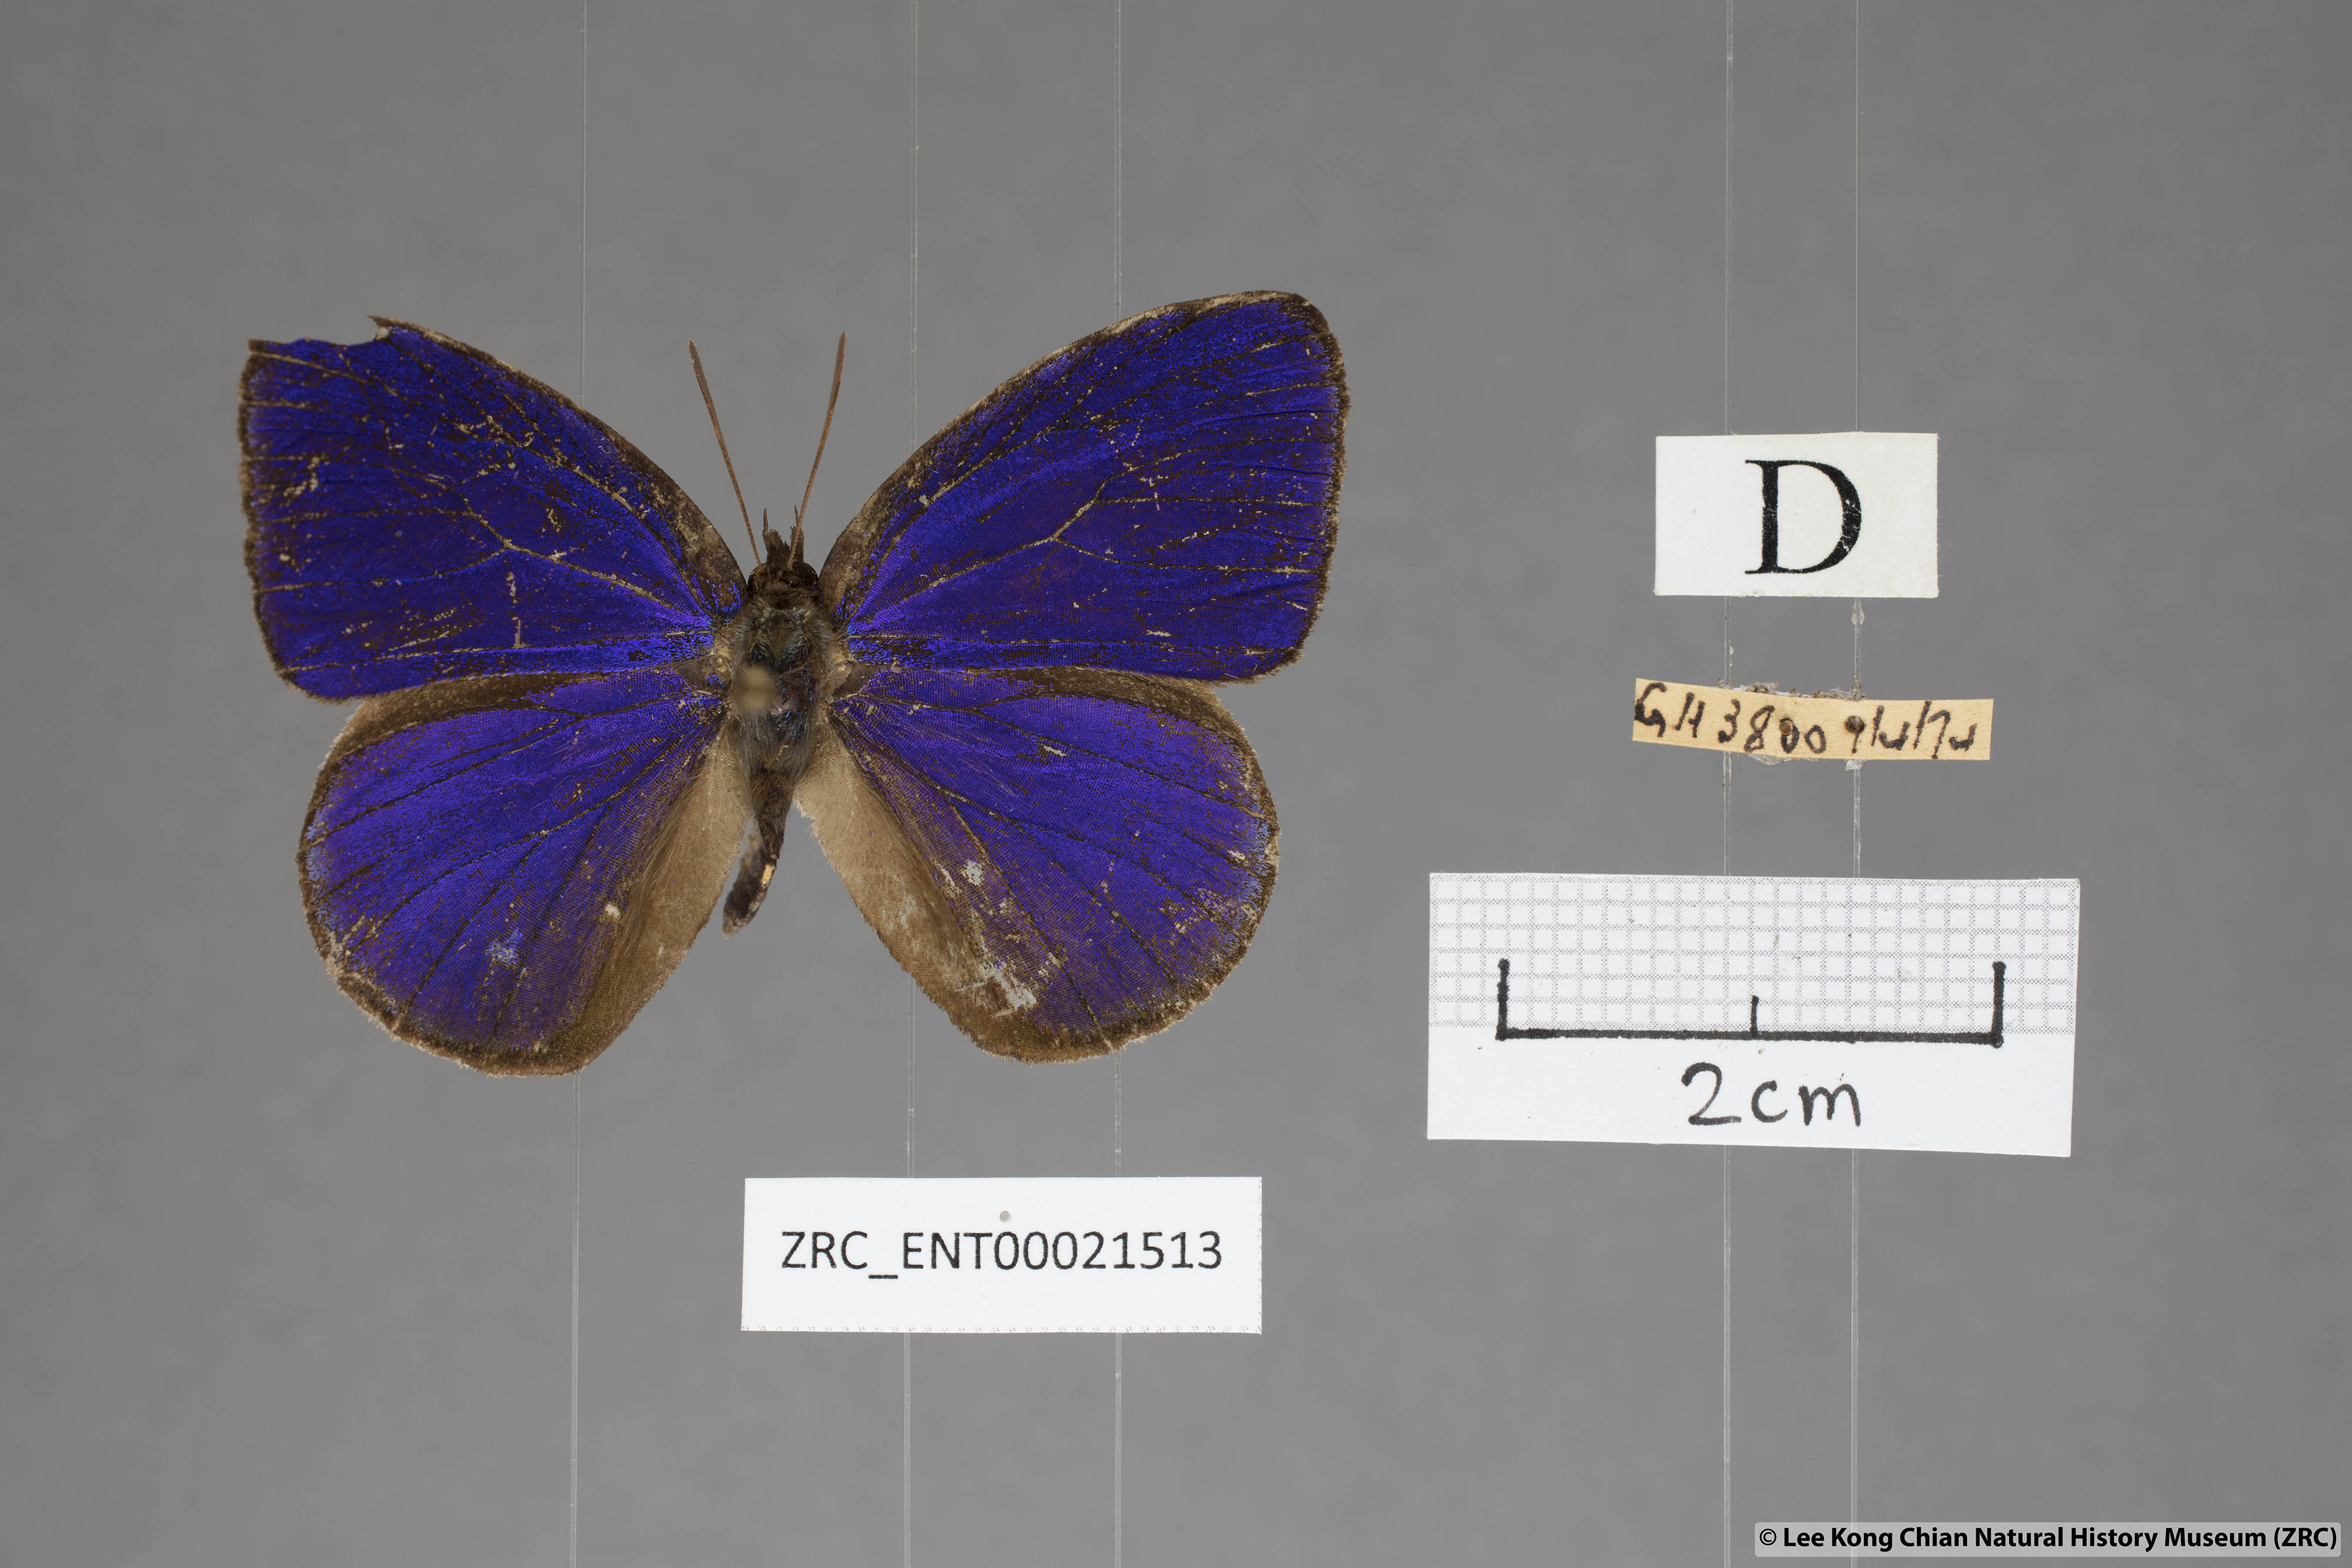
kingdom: Animalia
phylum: Arthropoda
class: Insecta
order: Lepidoptera
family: Lycaenidae
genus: Flos
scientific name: Flos
